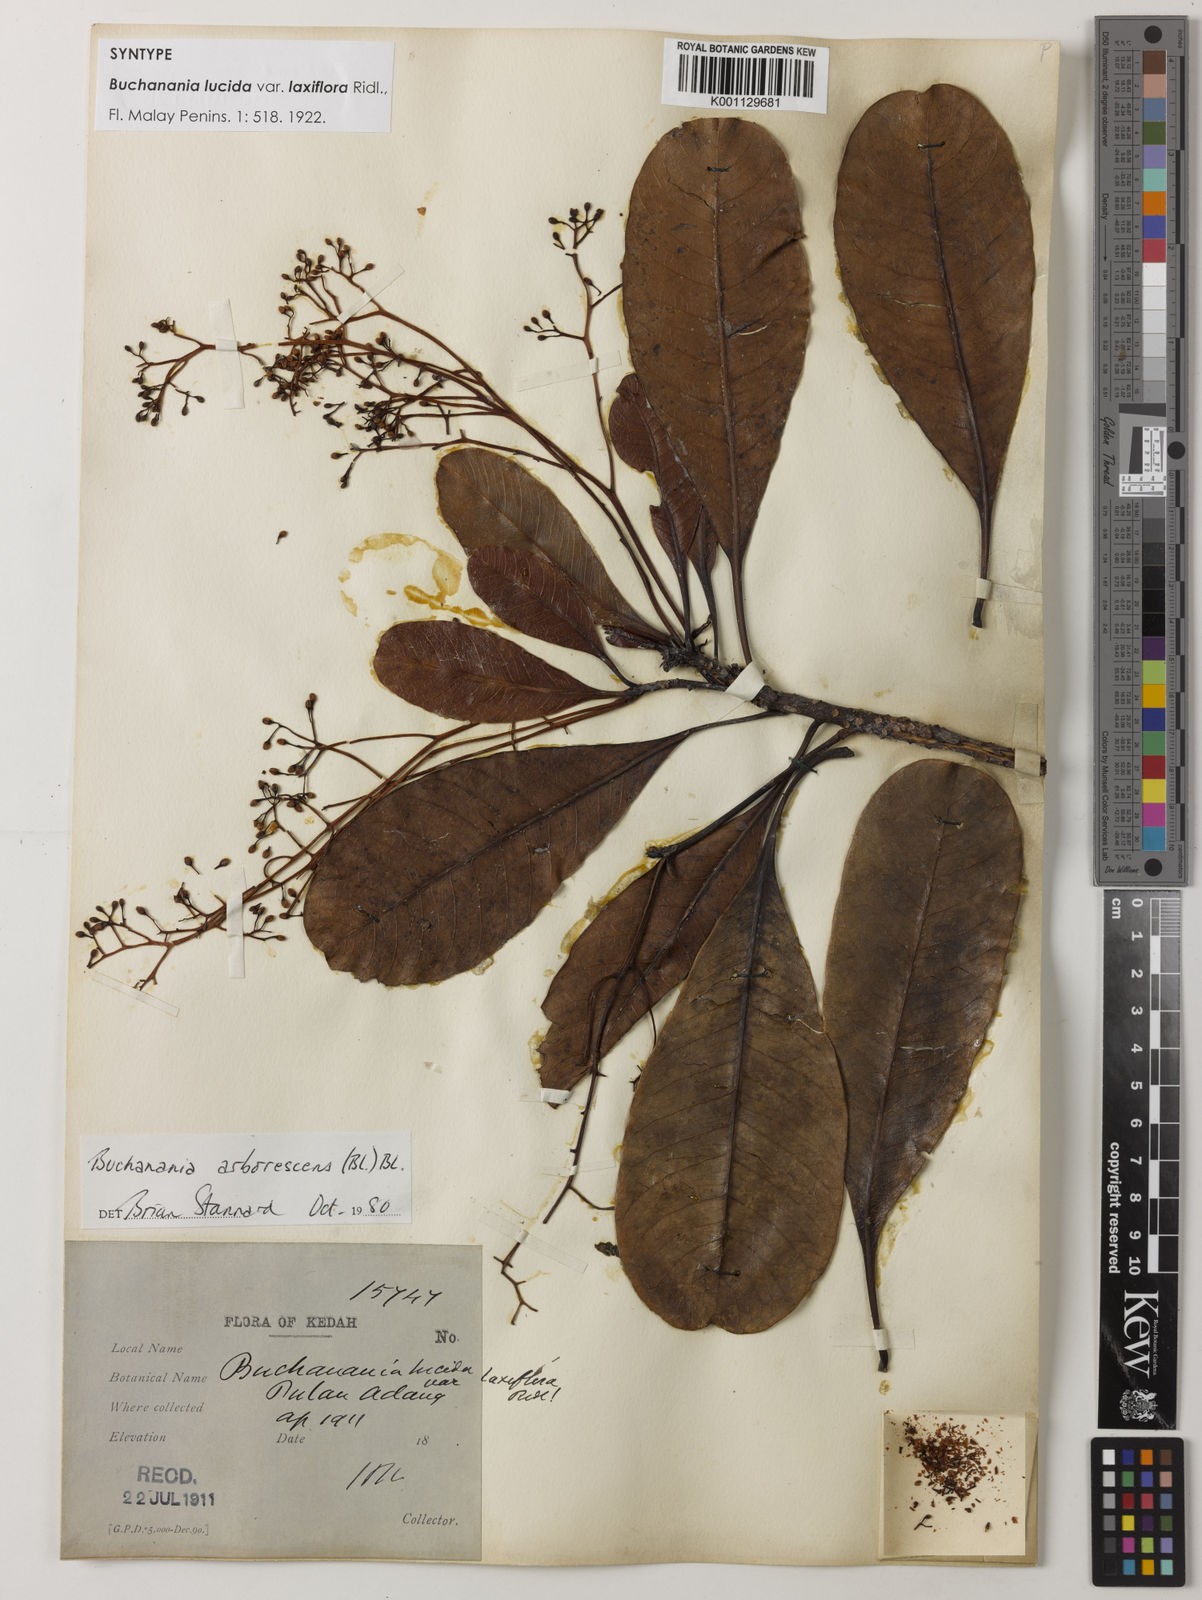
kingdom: Plantae
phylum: Tracheophyta
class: Magnoliopsida
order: Sapindales
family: Anacardiaceae
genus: Buchanania
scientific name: Buchanania arborescens
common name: Sparrow’s mango
